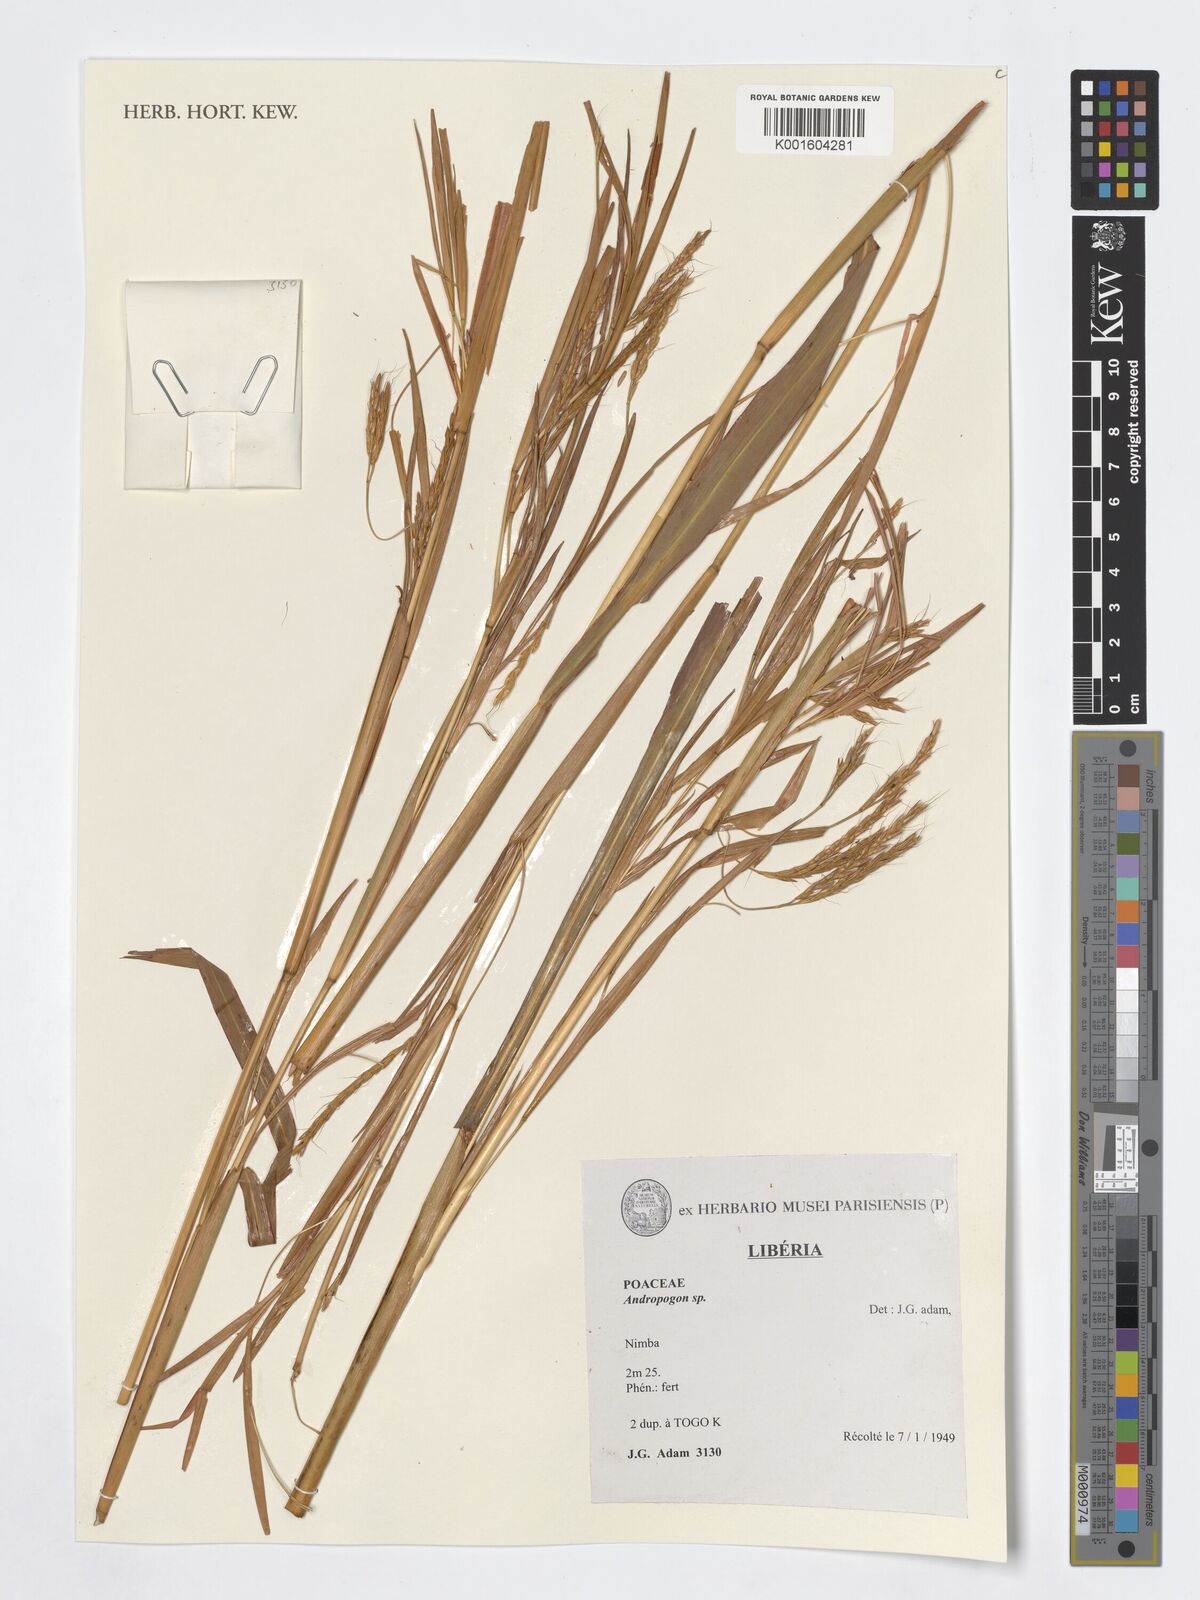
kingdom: Plantae
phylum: Tracheophyta
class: Liliopsida
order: Poales
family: Poaceae
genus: Andropogon
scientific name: Andropogon
